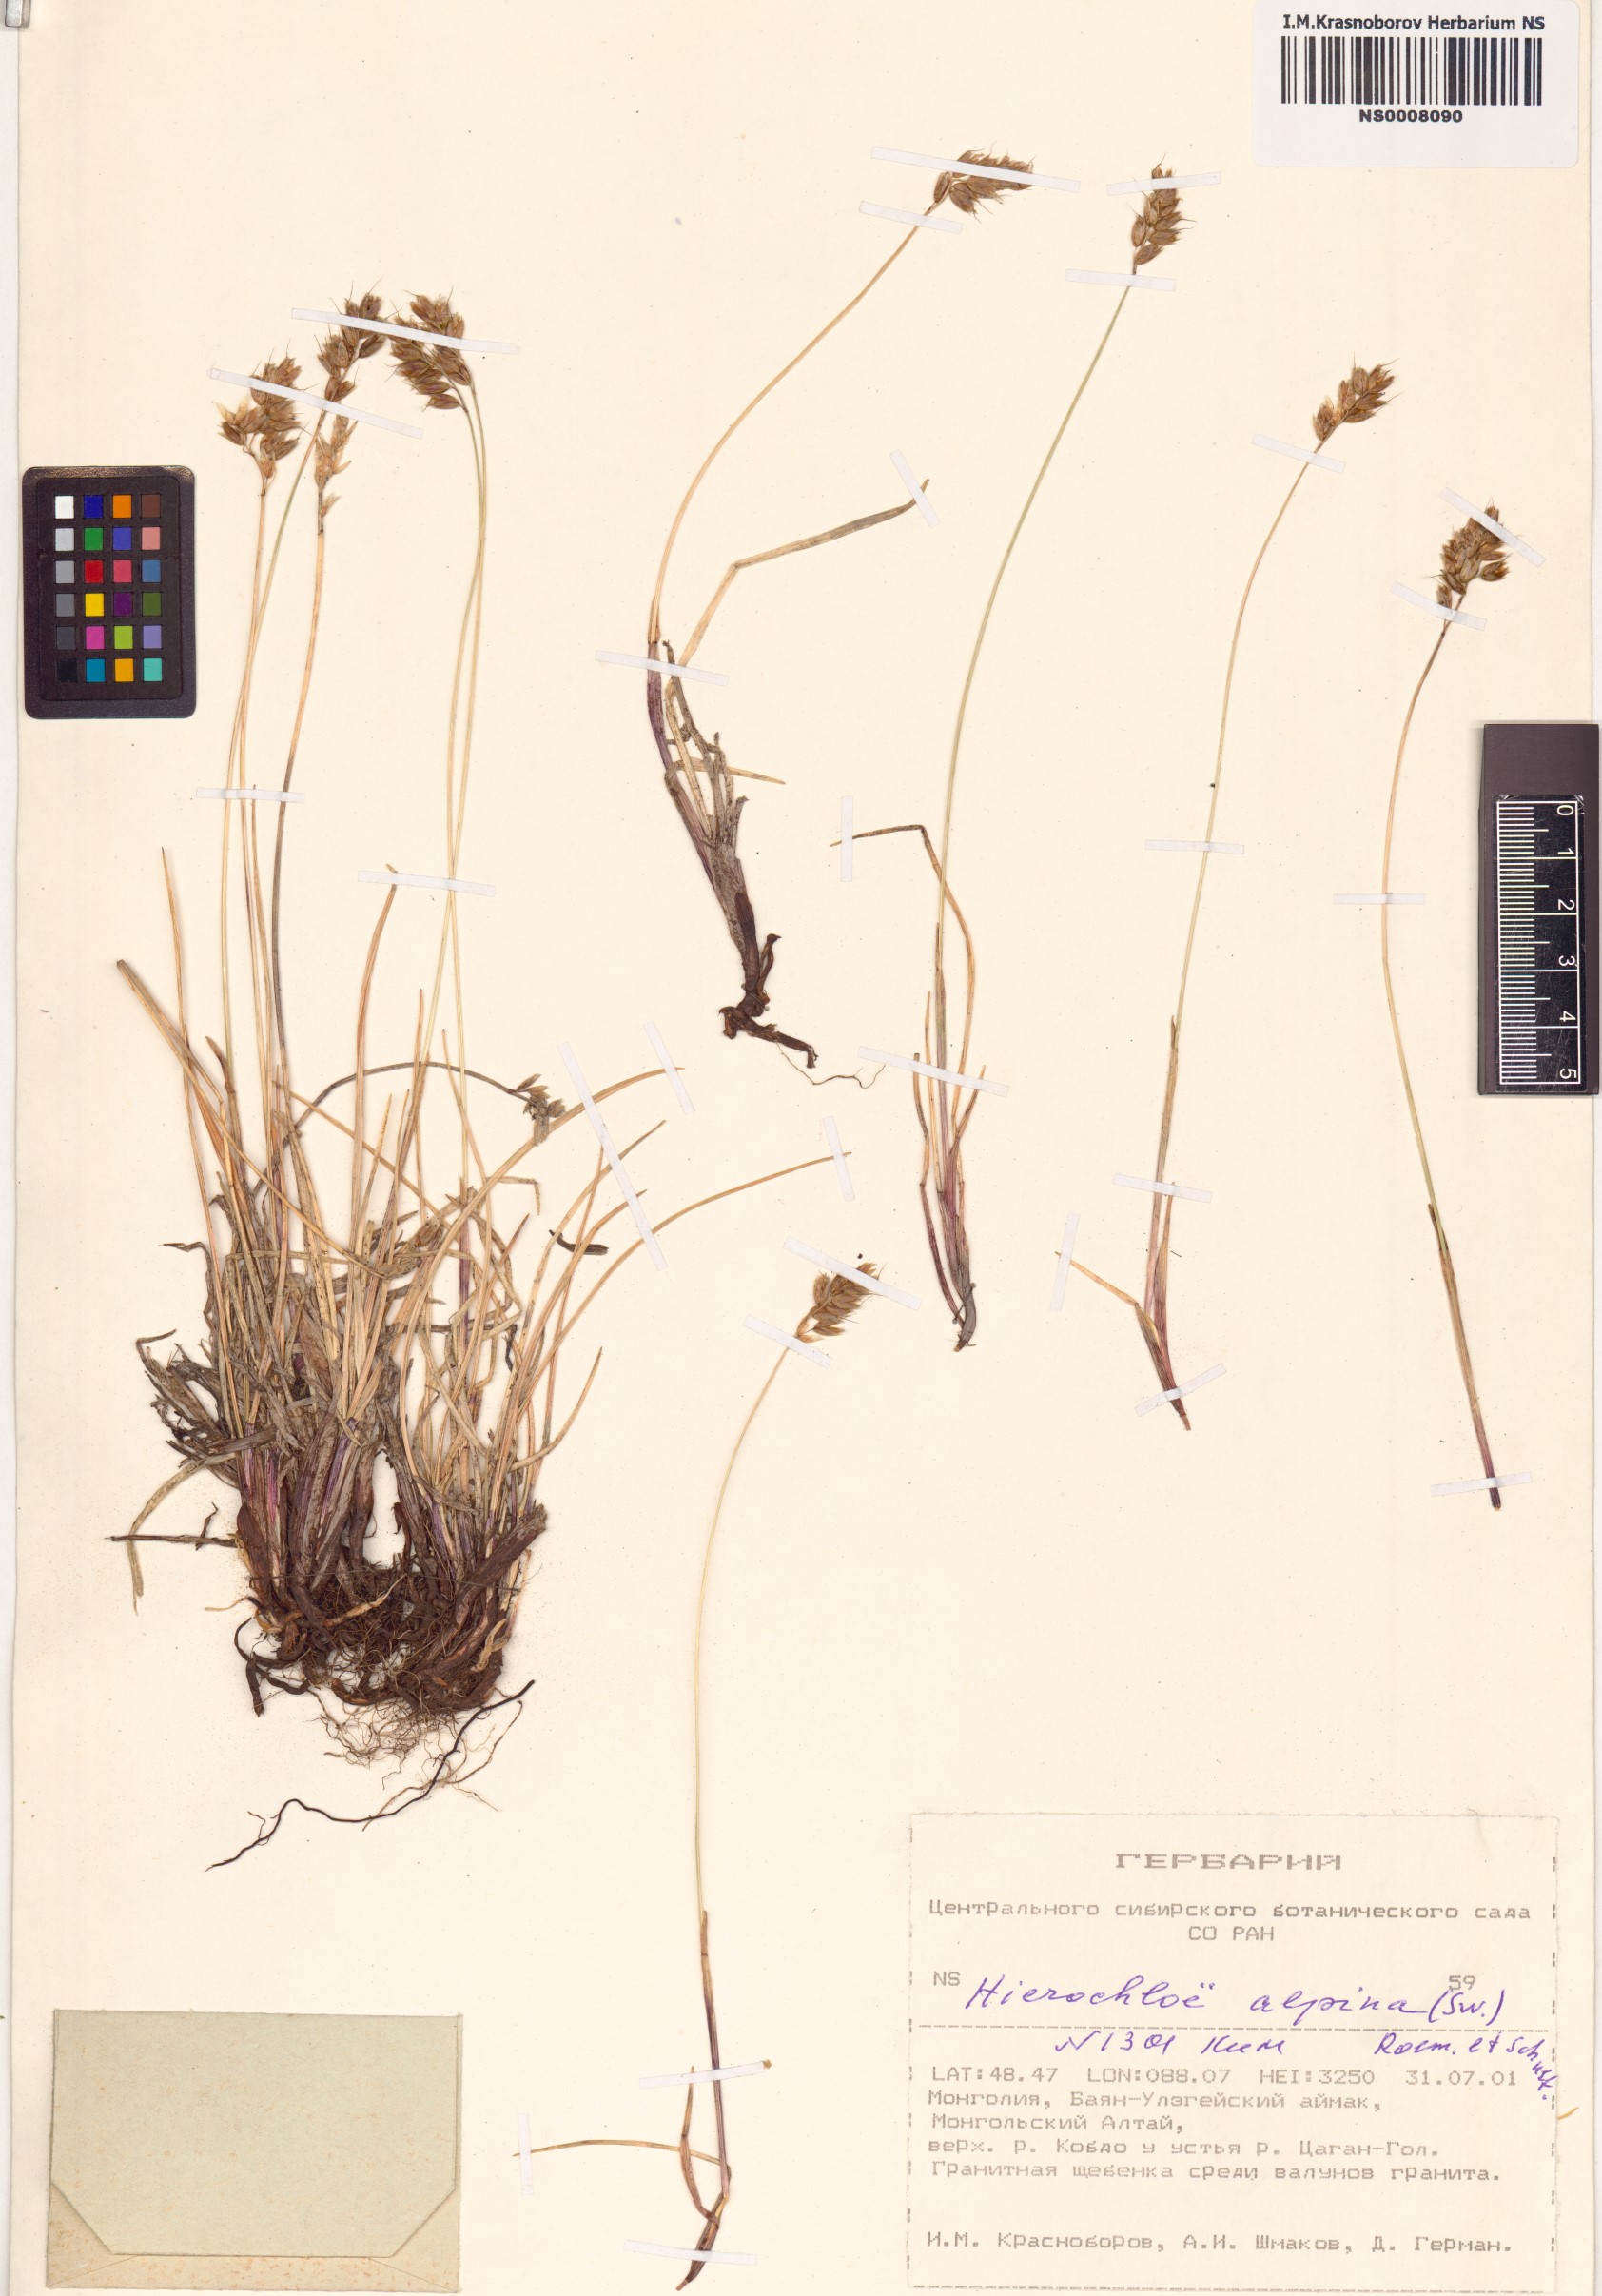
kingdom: Plantae
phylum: Tracheophyta
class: Liliopsida
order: Poales
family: Poaceae
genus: Anthoxanthum
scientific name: Anthoxanthum monticola
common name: Alpine sweetgrass
